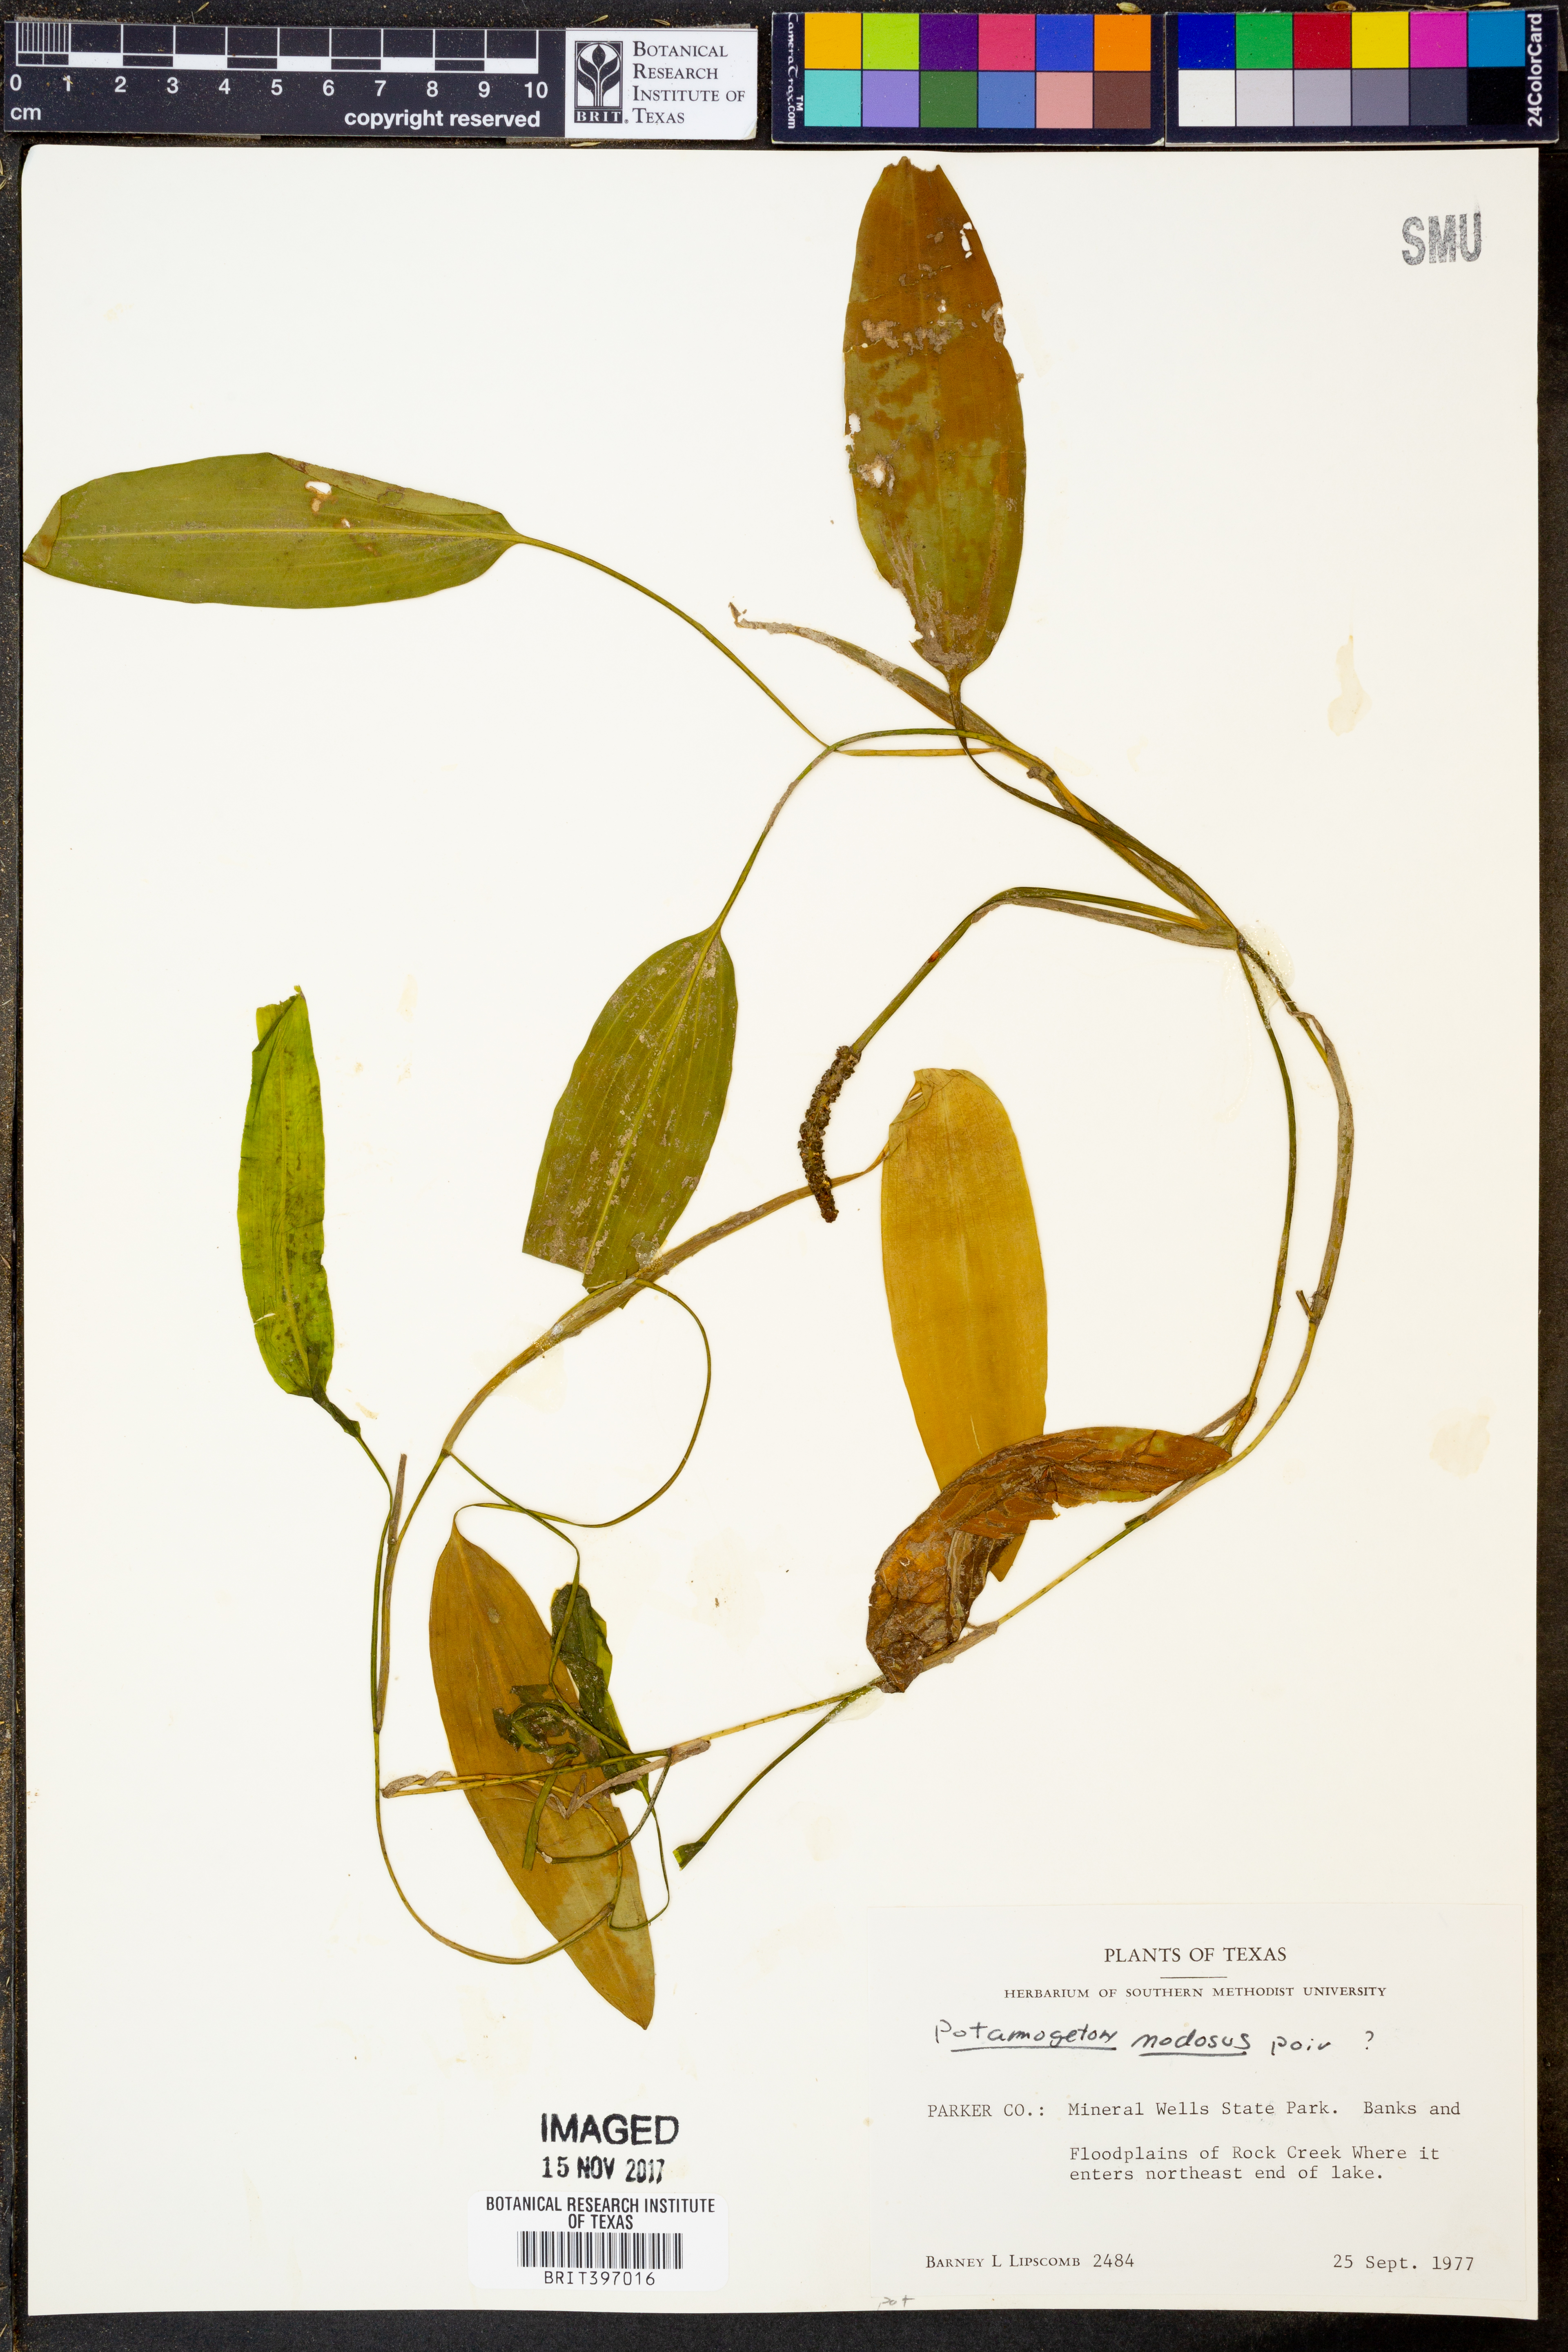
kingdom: Plantae
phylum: Tracheophyta
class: Liliopsida
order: Alismatales
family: Potamogetonaceae
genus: Potamogeton
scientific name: Potamogeton nodosus
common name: Loddon pondweed
